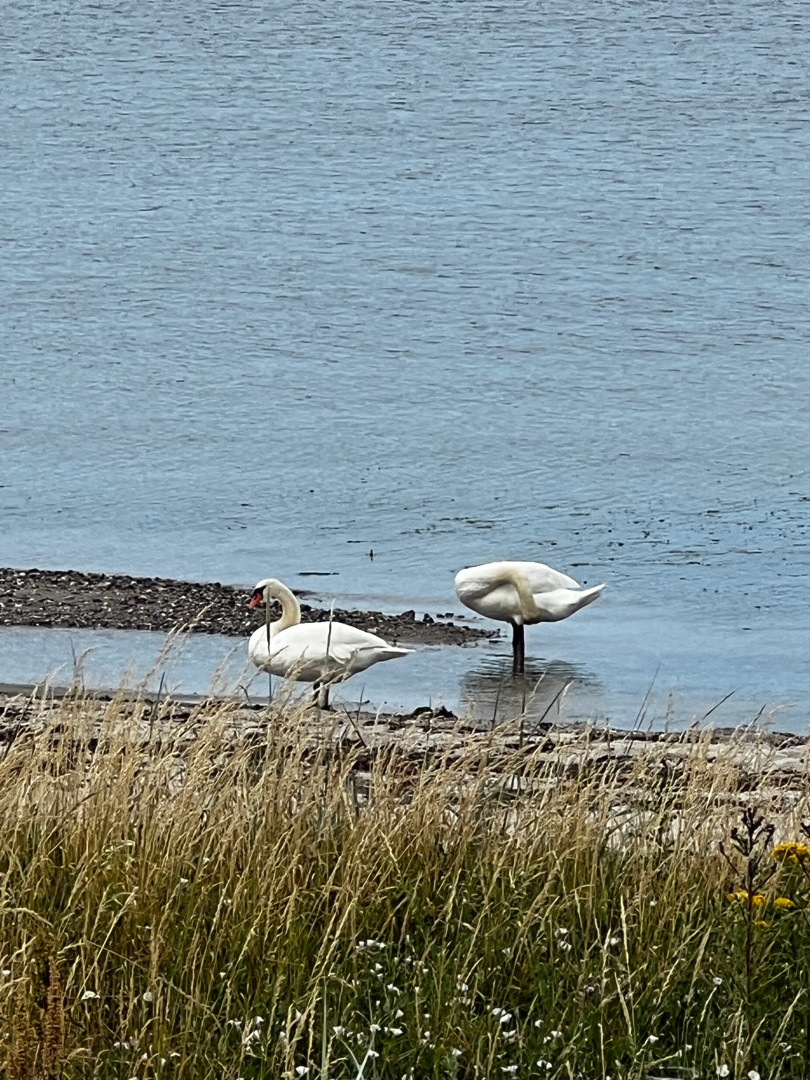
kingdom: Animalia
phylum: Chordata
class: Aves
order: Anseriformes
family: Anatidae
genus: Cygnus
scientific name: Cygnus olor
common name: Knopsvane
